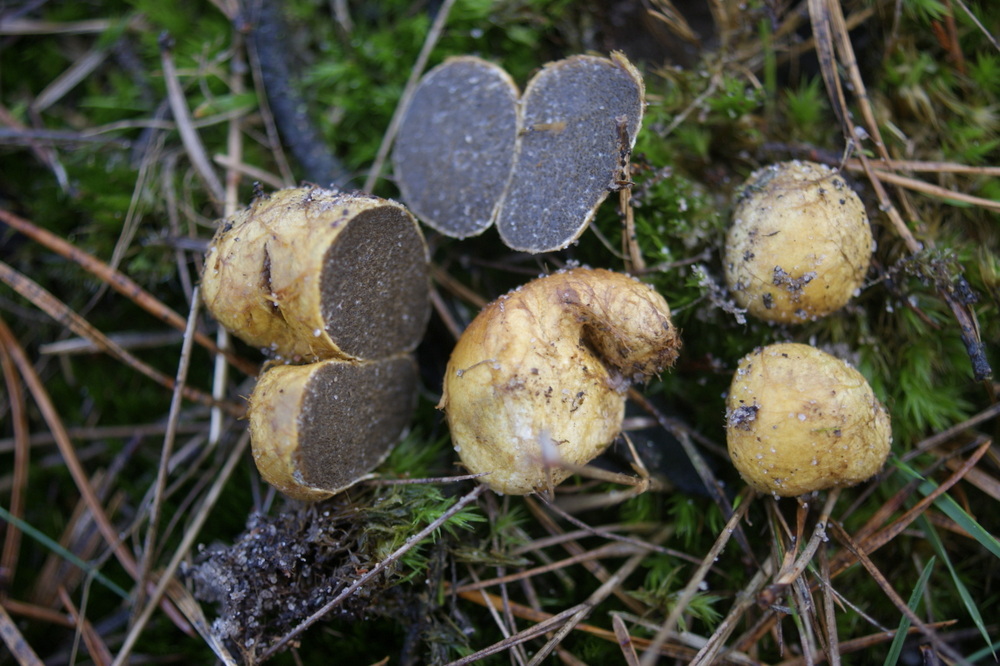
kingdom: Fungi
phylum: Basidiomycota
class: Agaricomycetes
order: Boletales
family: Rhizopogonaceae
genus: Rhizopogon
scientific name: Rhizopogon obtextus
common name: gul skægtrøffel
